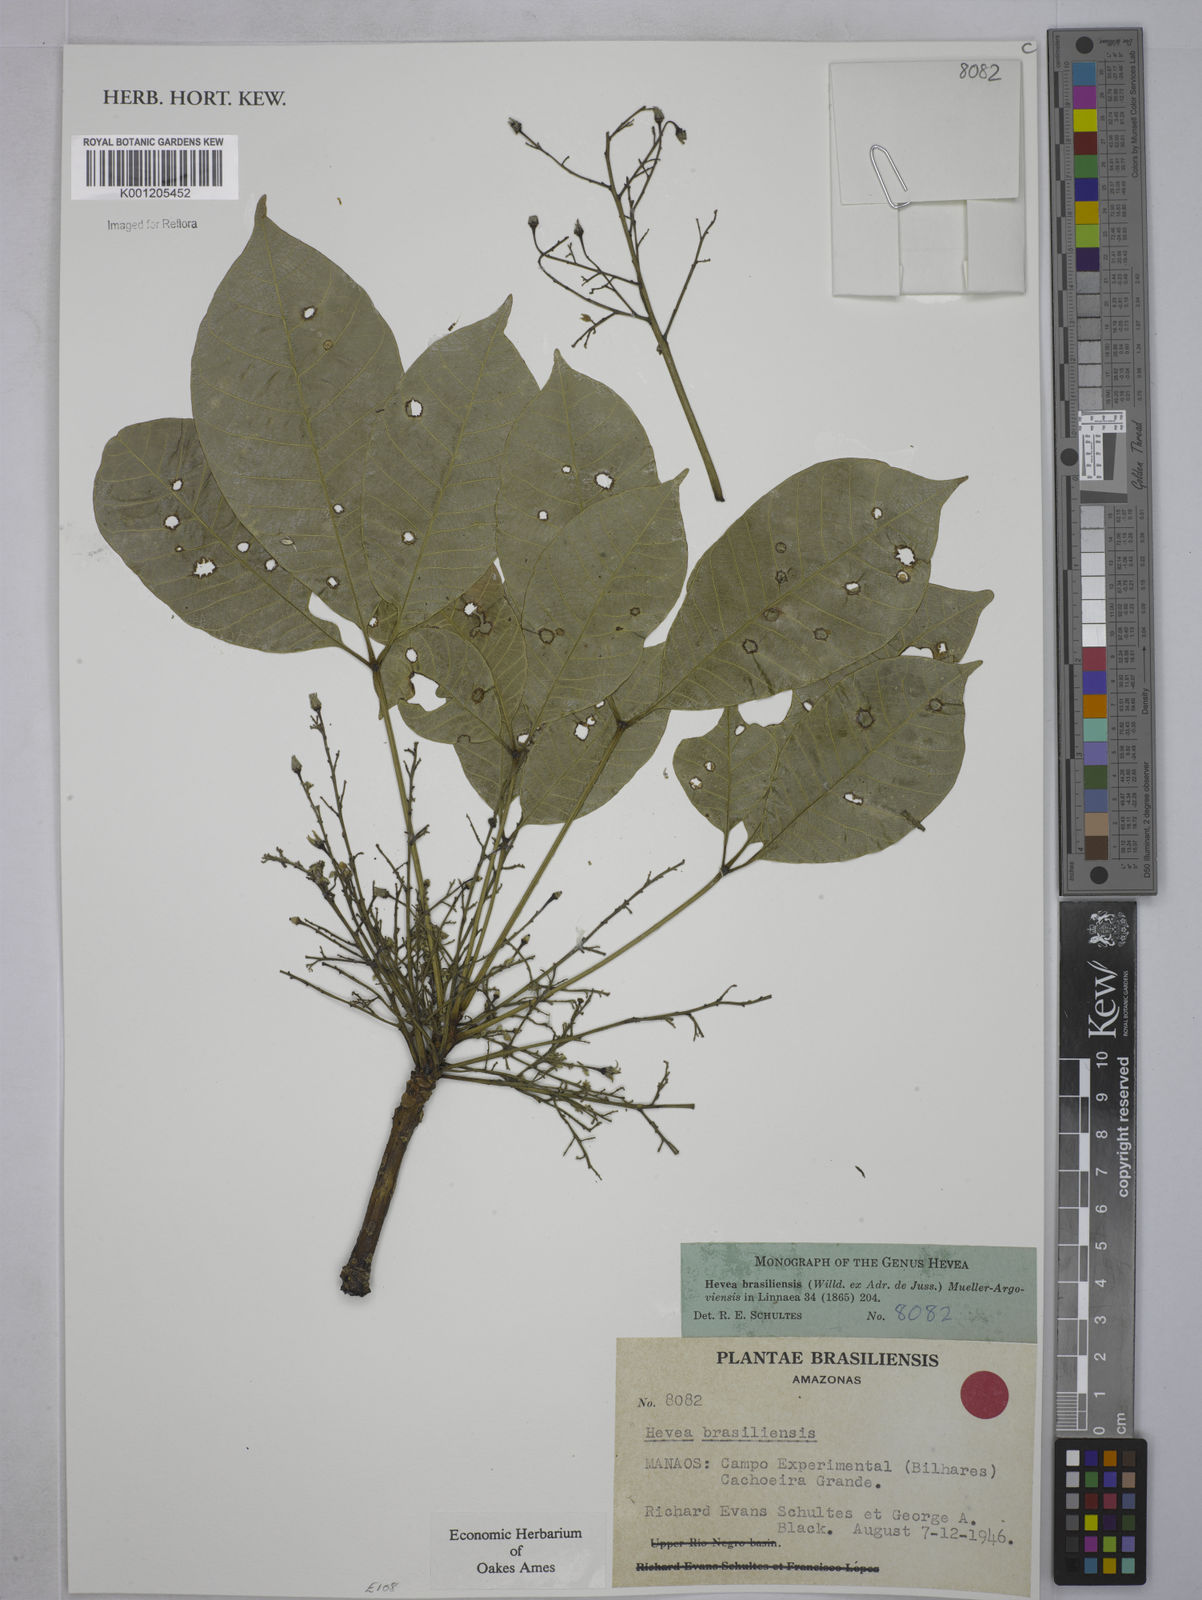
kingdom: Plantae
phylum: Tracheophyta
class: Magnoliopsida
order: Malpighiales
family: Euphorbiaceae
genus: Hevea
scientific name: Hevea
